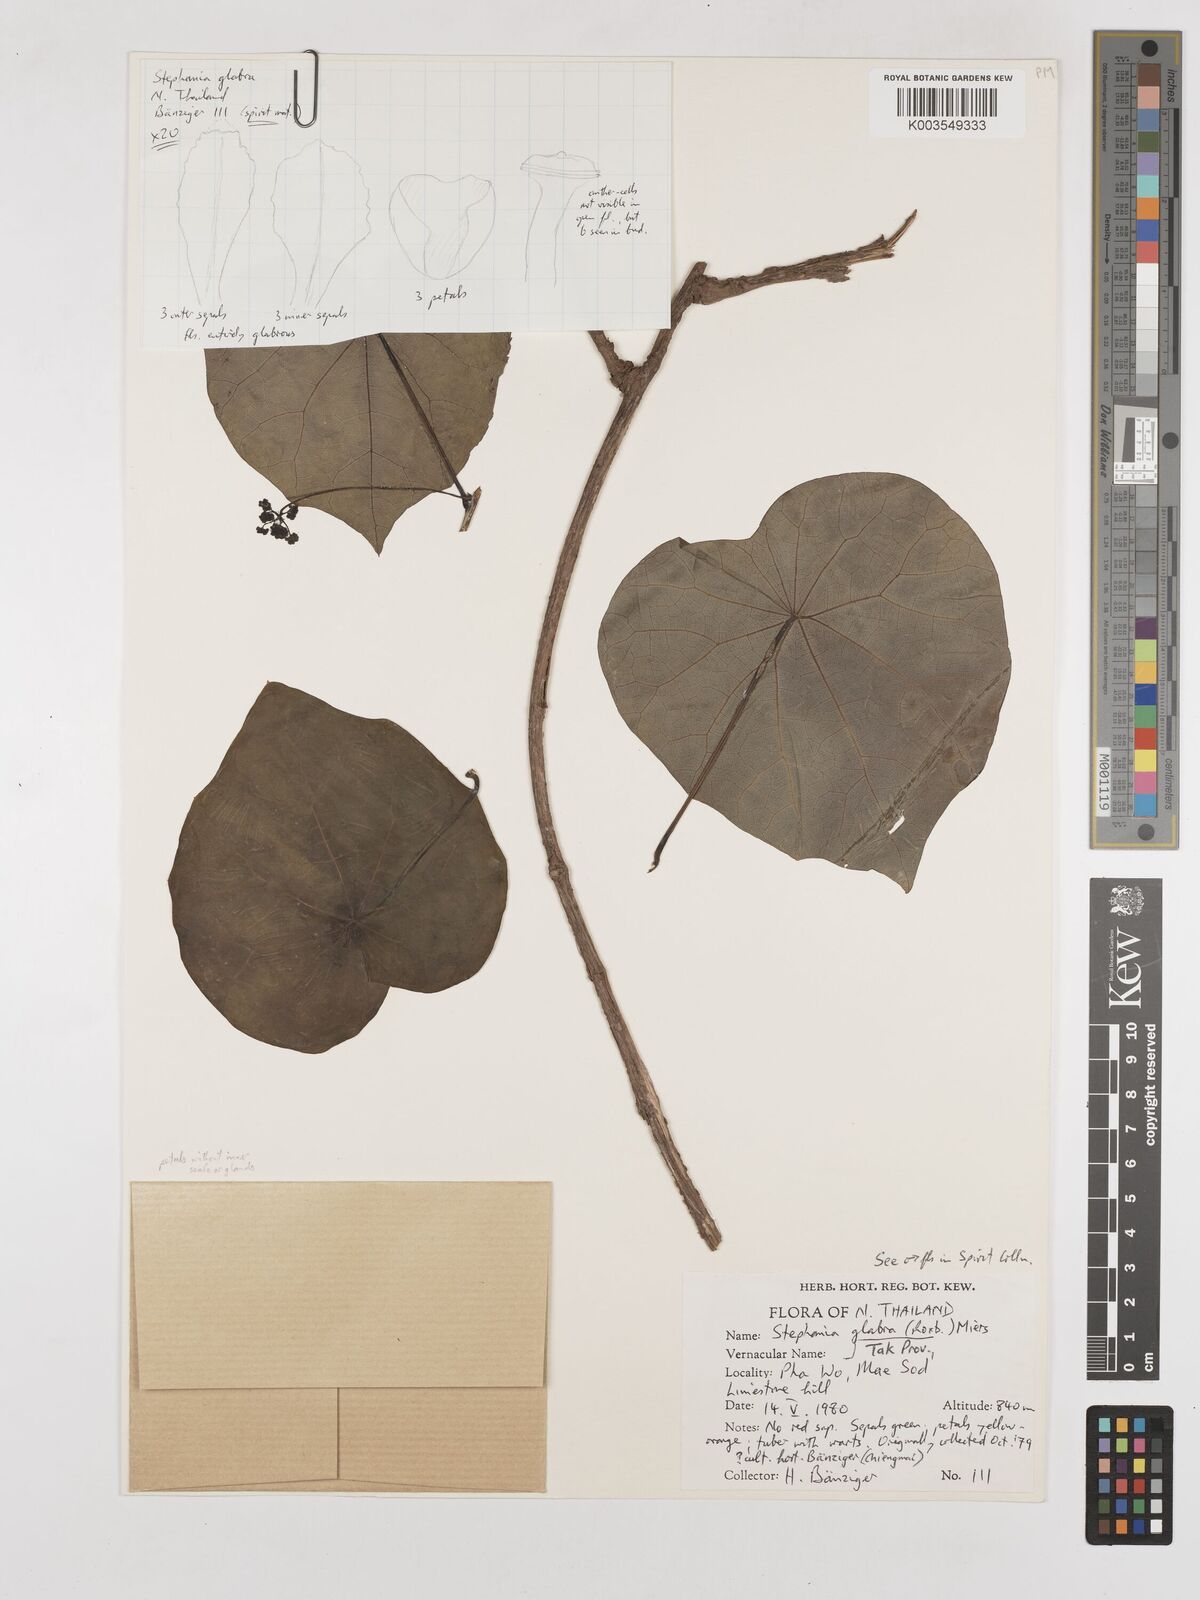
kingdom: Plantae
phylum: Tracheophyta
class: Magnoliopsida
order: Ranunculales
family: Menispermaceae
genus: Stephania
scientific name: Stephania rotunda
